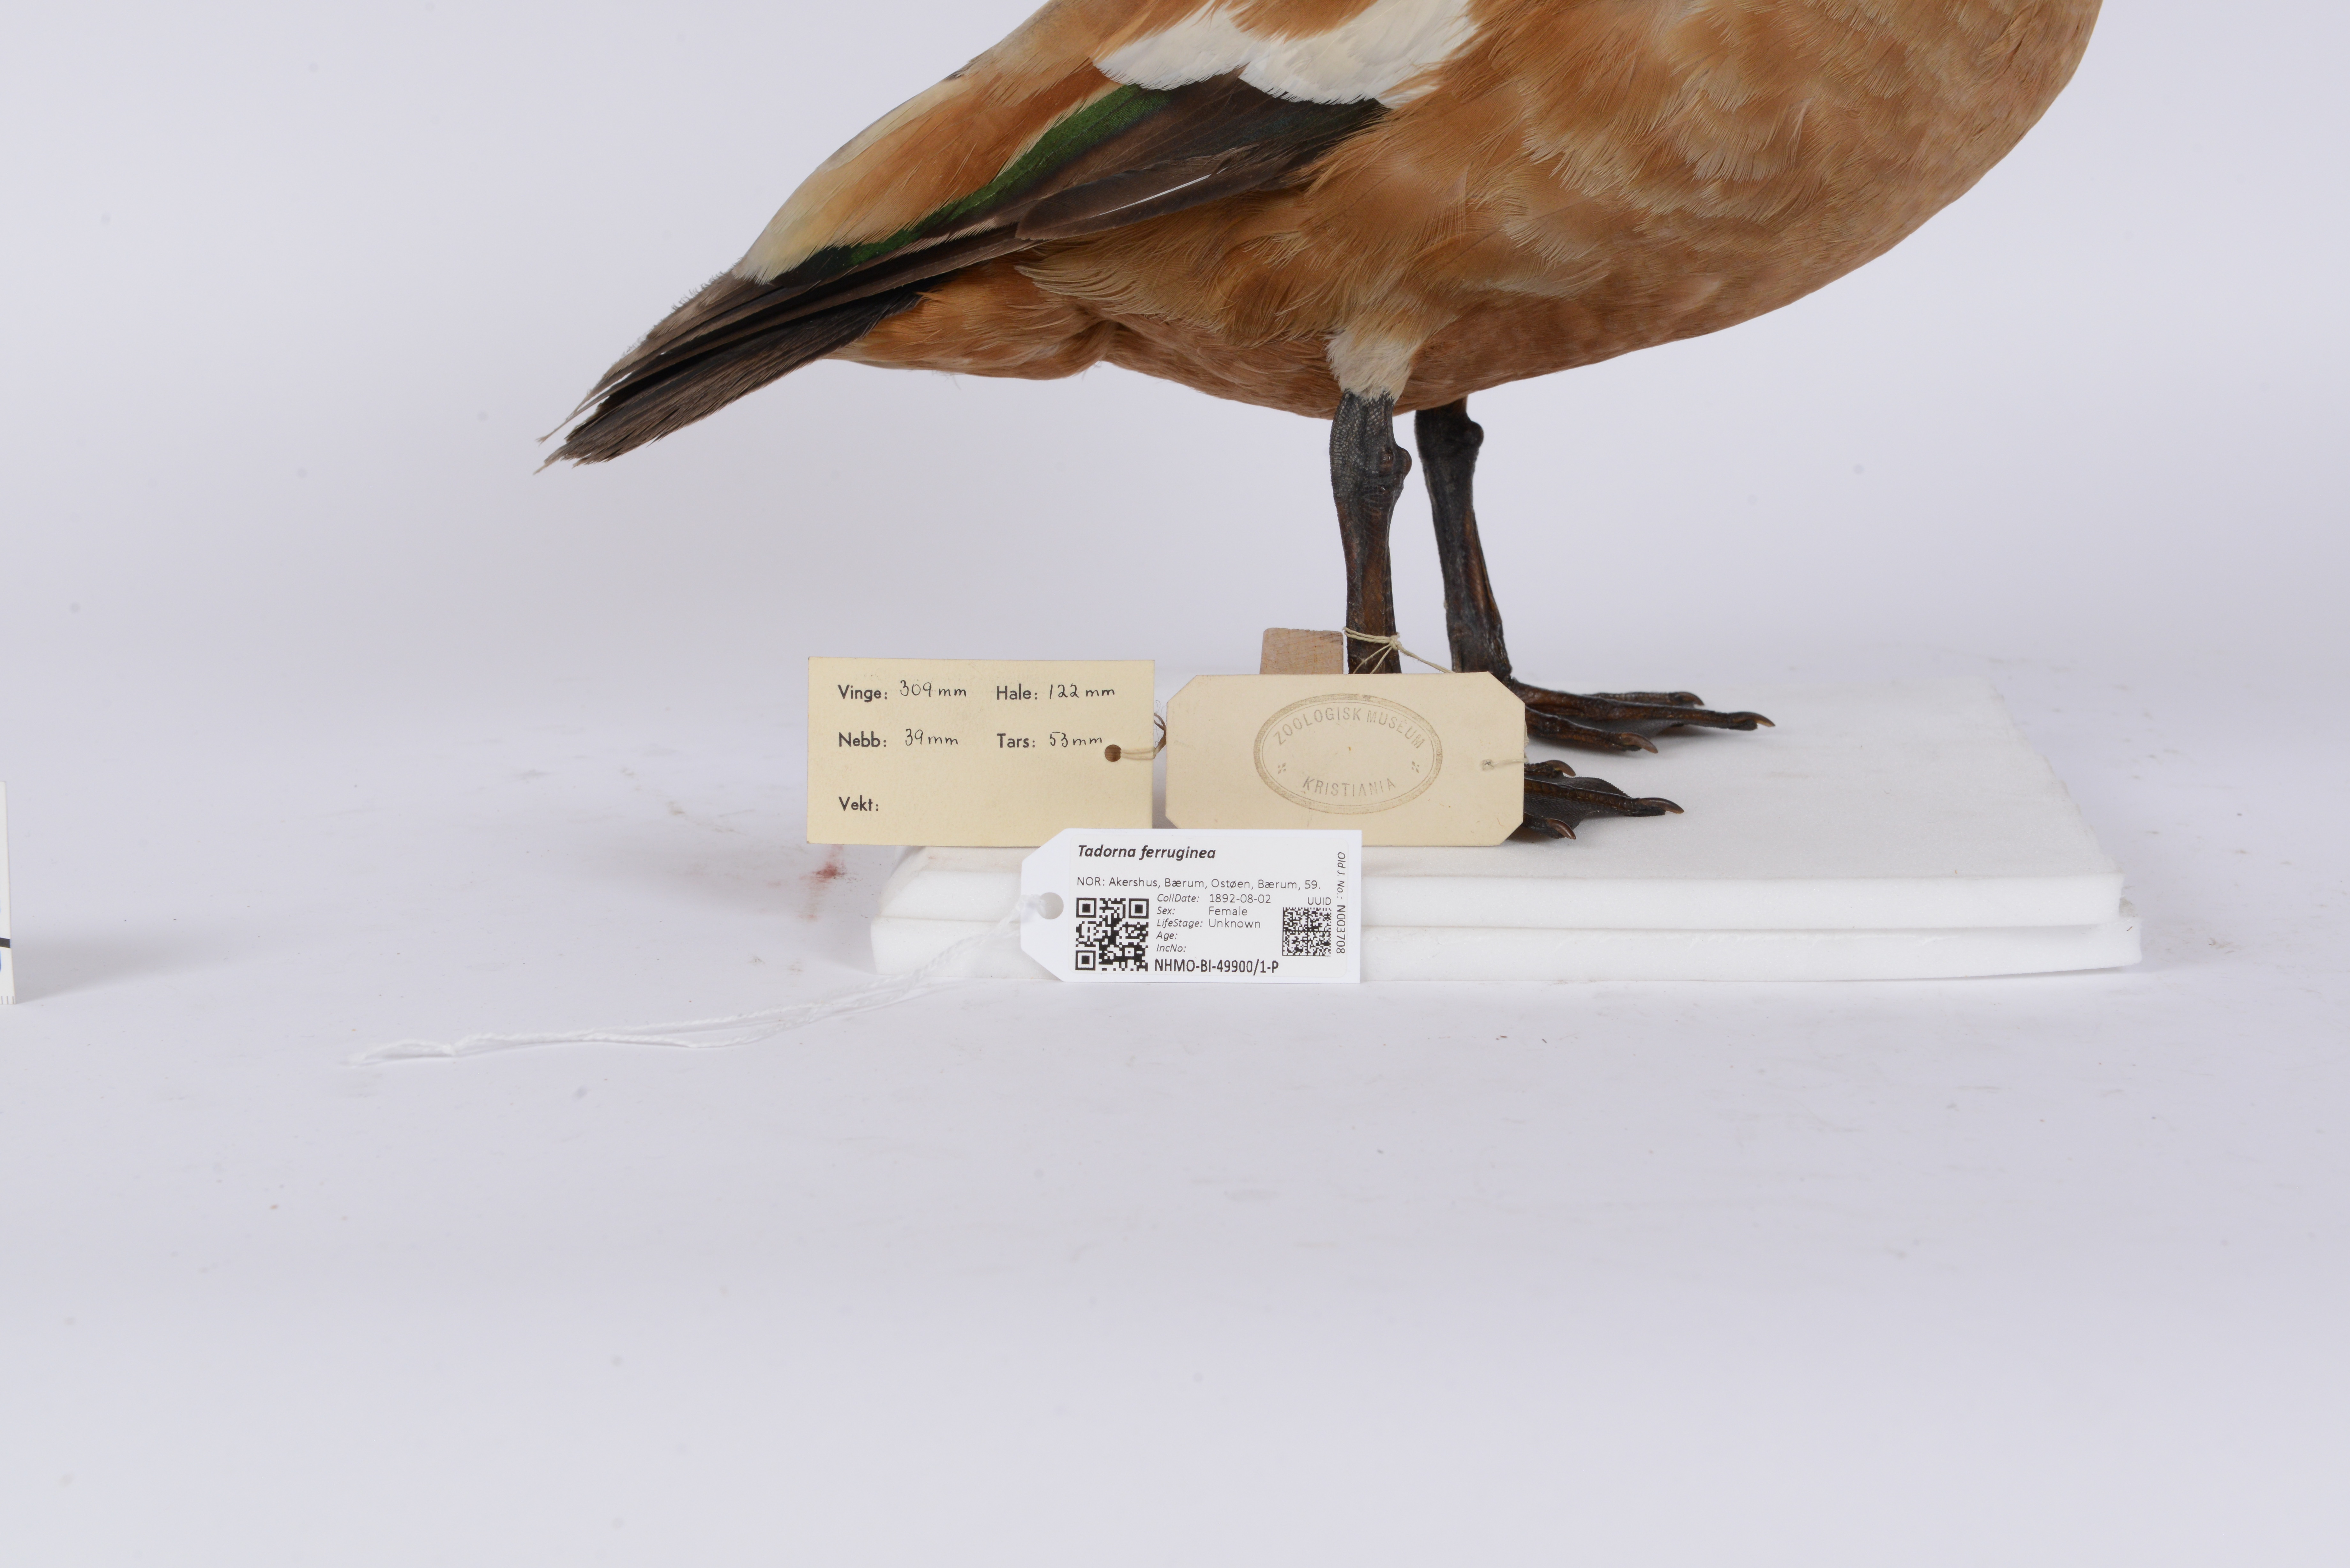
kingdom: Animalia
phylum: Chordata
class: Aves
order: Anseriformes
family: Anatidae
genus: Tadorna
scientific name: Tadorna ferruginea
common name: Ruddy shelduck
